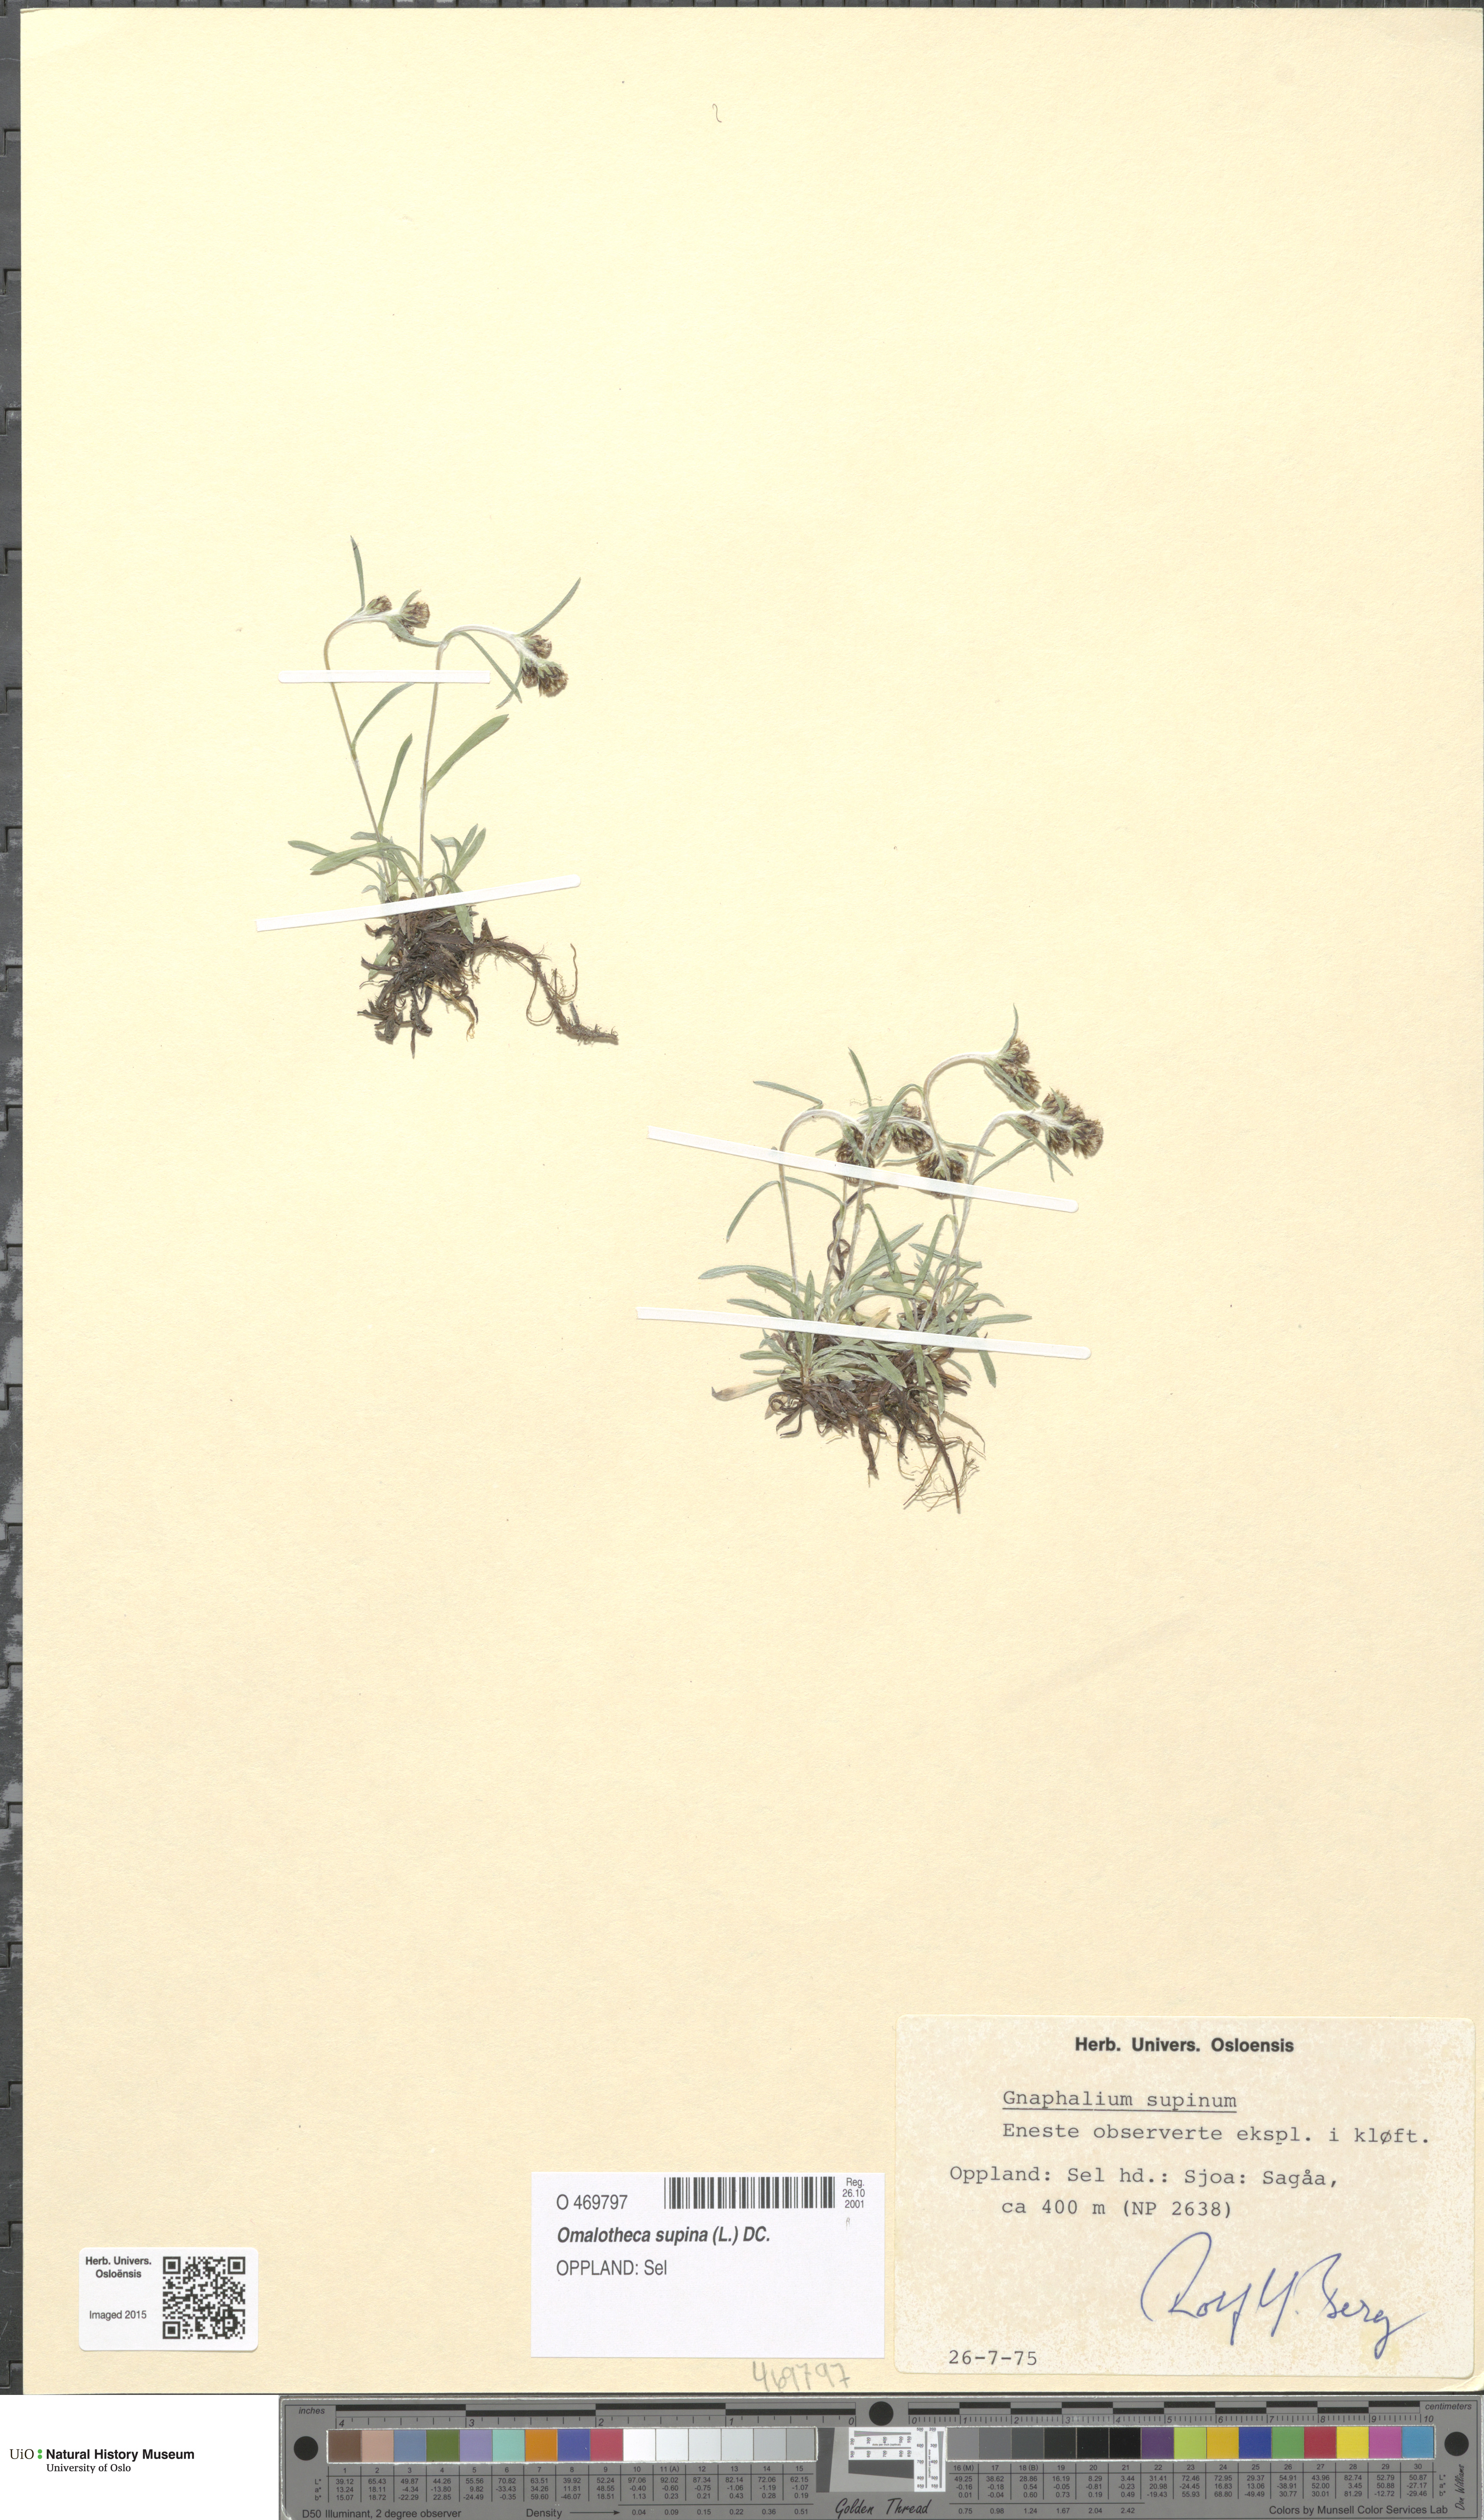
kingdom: Plantae
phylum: Tracheophyta
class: Magnoliopsida
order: Asterales
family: Asteraceae
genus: Omalotheca
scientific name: Omalotheca supina
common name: Alpine arctic-cudweed
